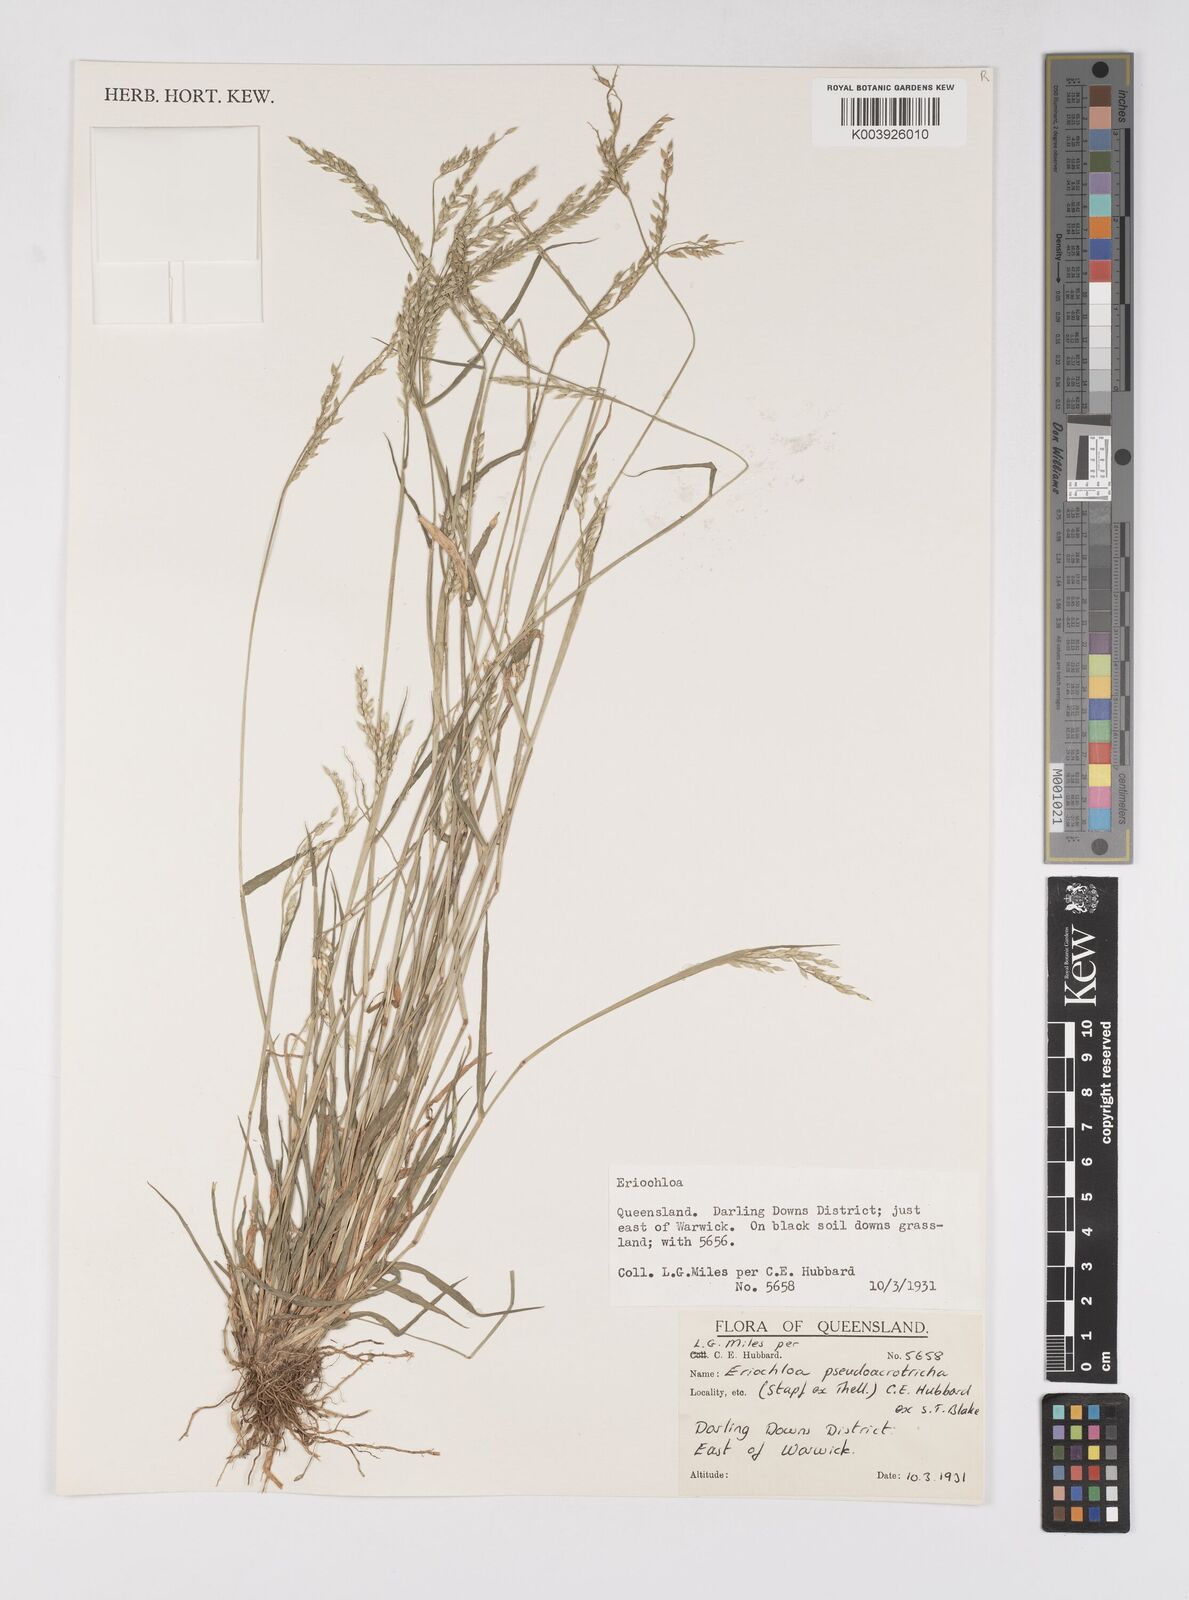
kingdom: Plantae
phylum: Tracheophyta
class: Liliopsida
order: Poales
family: Poaceae
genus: Eriochloa
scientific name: Eriochloa pseudoacrotricha
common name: Perennial cup-grass
